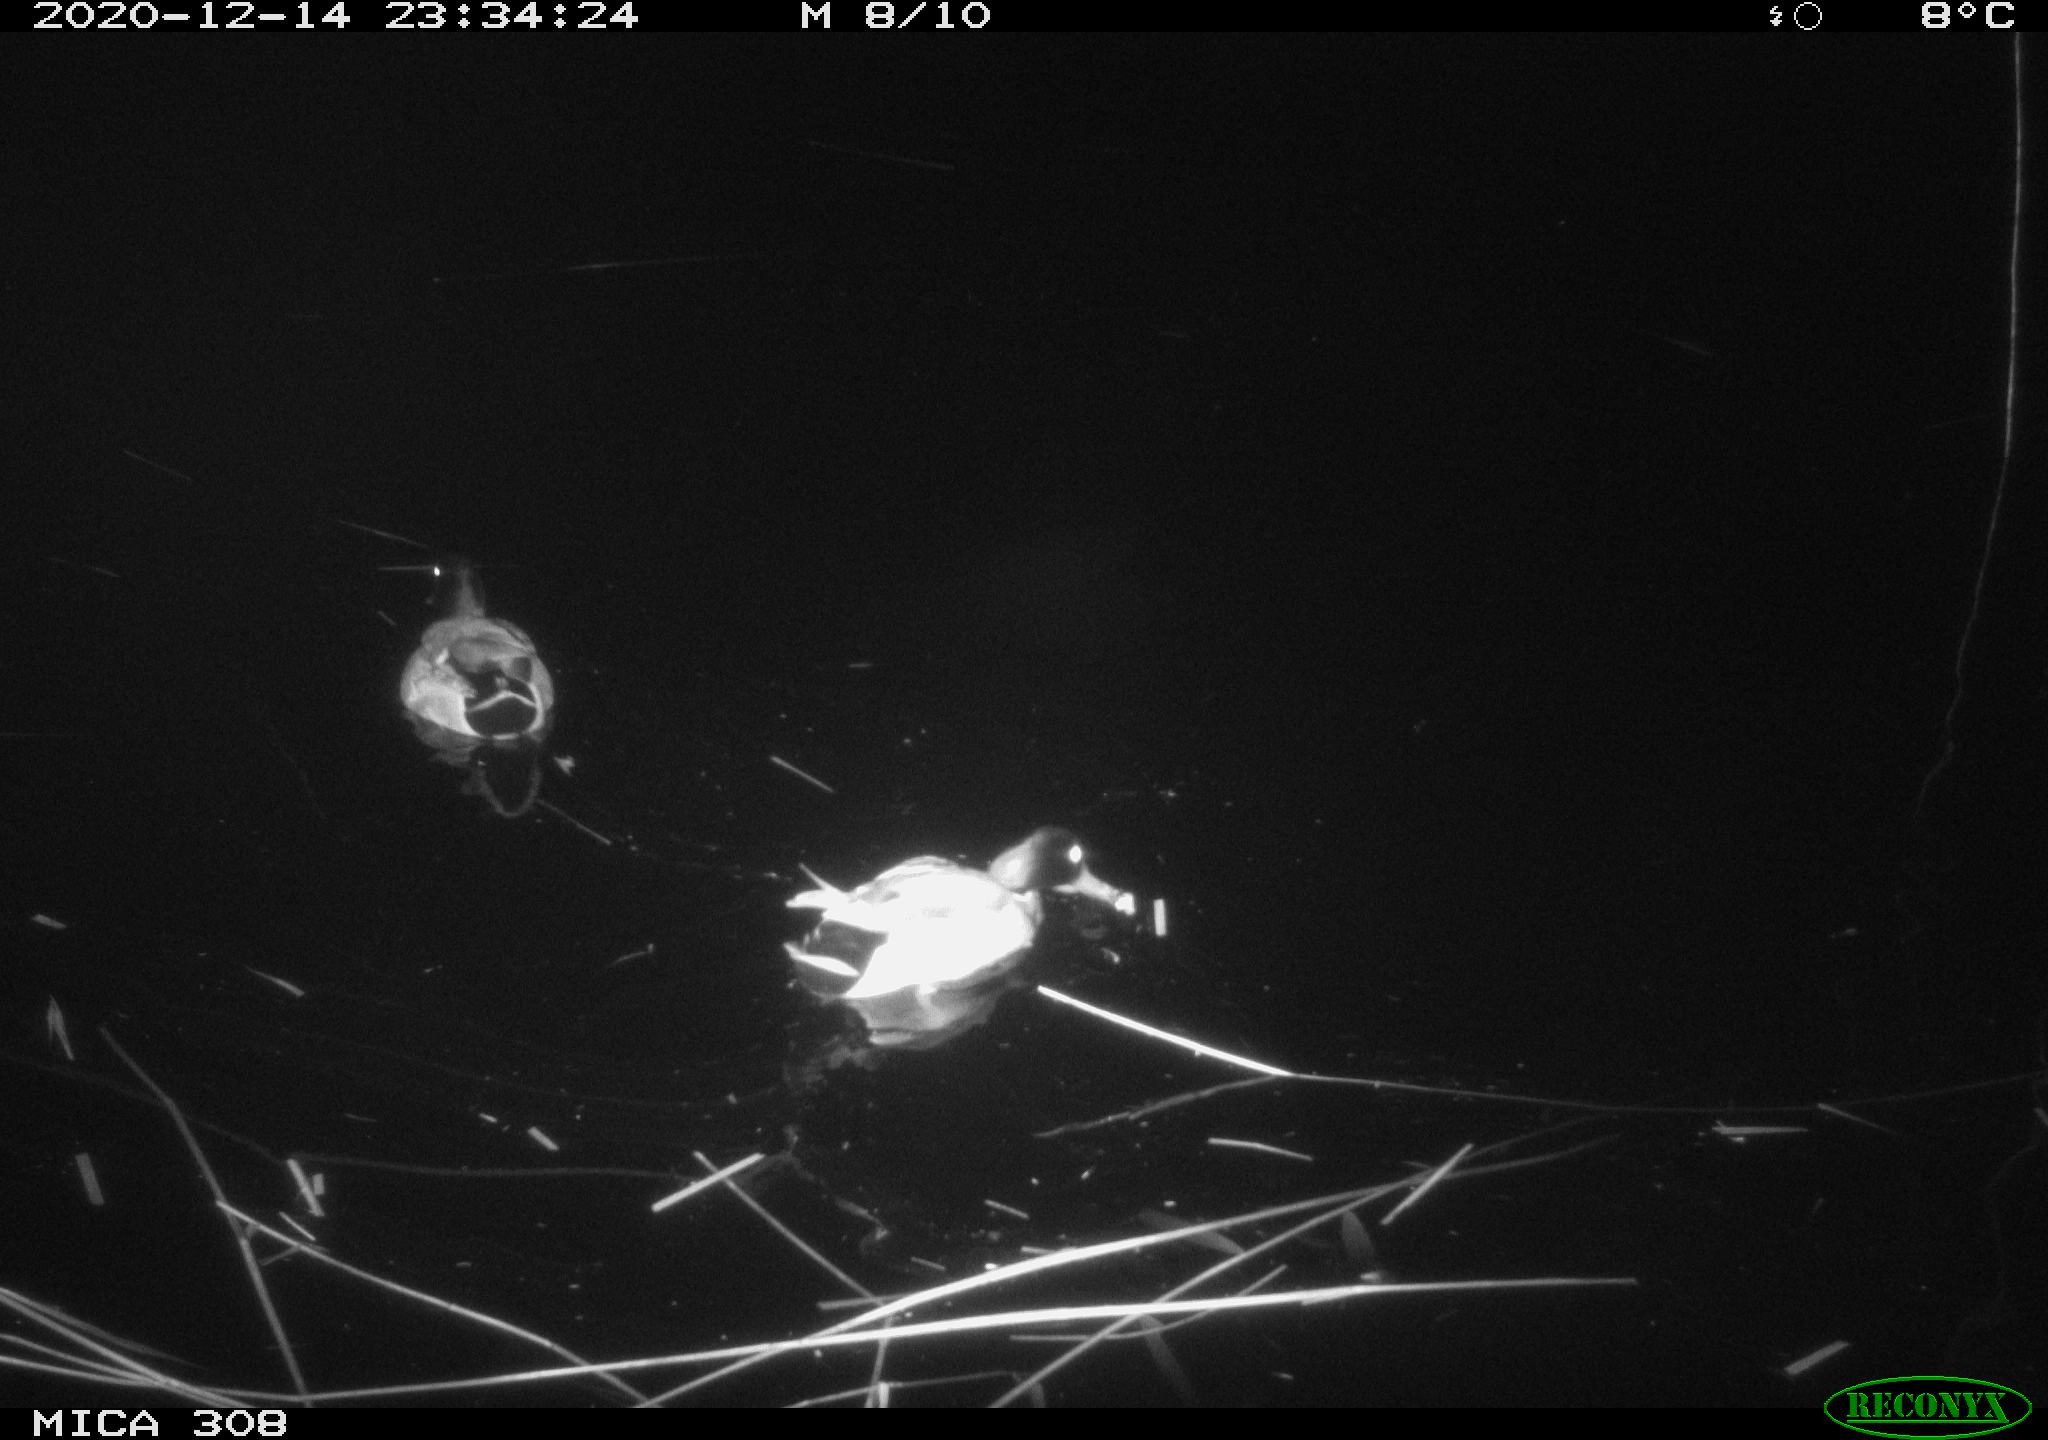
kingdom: Animalia
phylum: Chordata
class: Aves
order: Gruiformes
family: Rallidae
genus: Gallinula
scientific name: Gallinula chloropus
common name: Common moorhen
